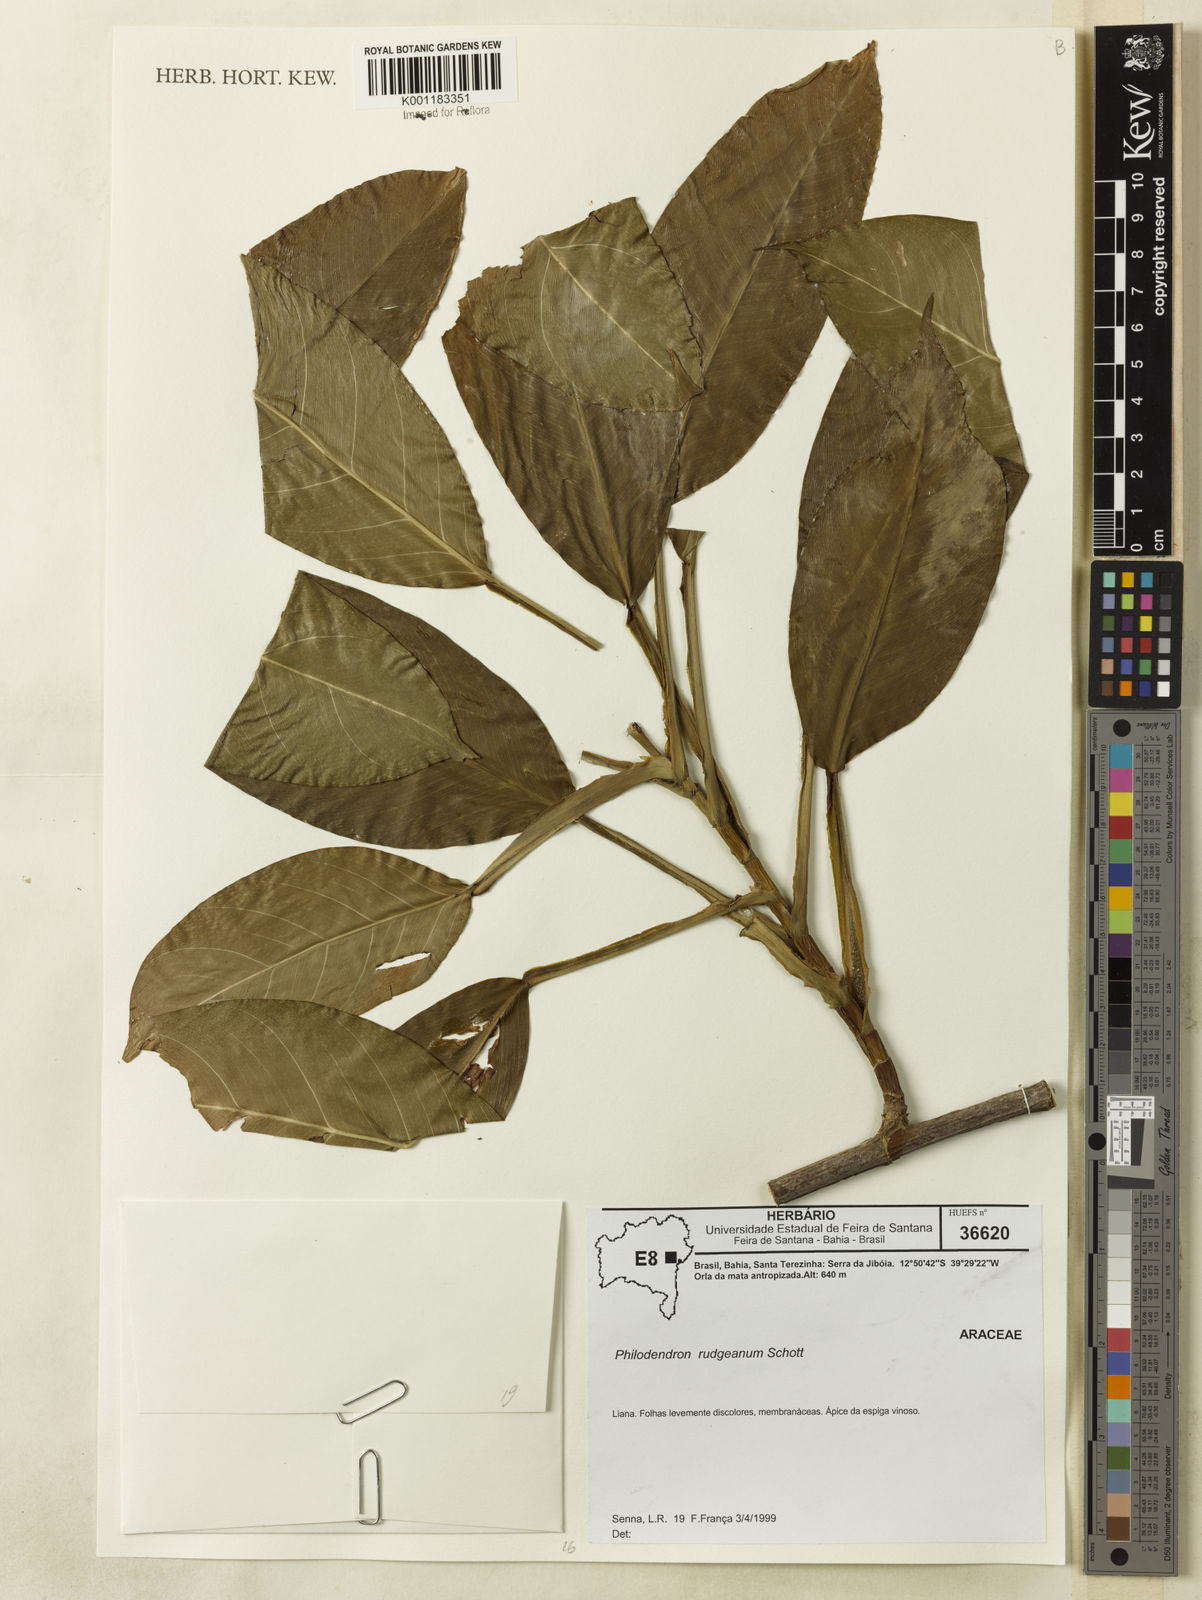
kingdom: Plantae
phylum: Tracheophyta
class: Liliopsida
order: Alismatales
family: Araceae
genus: Philodendron
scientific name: Philodendron rudgeanum
